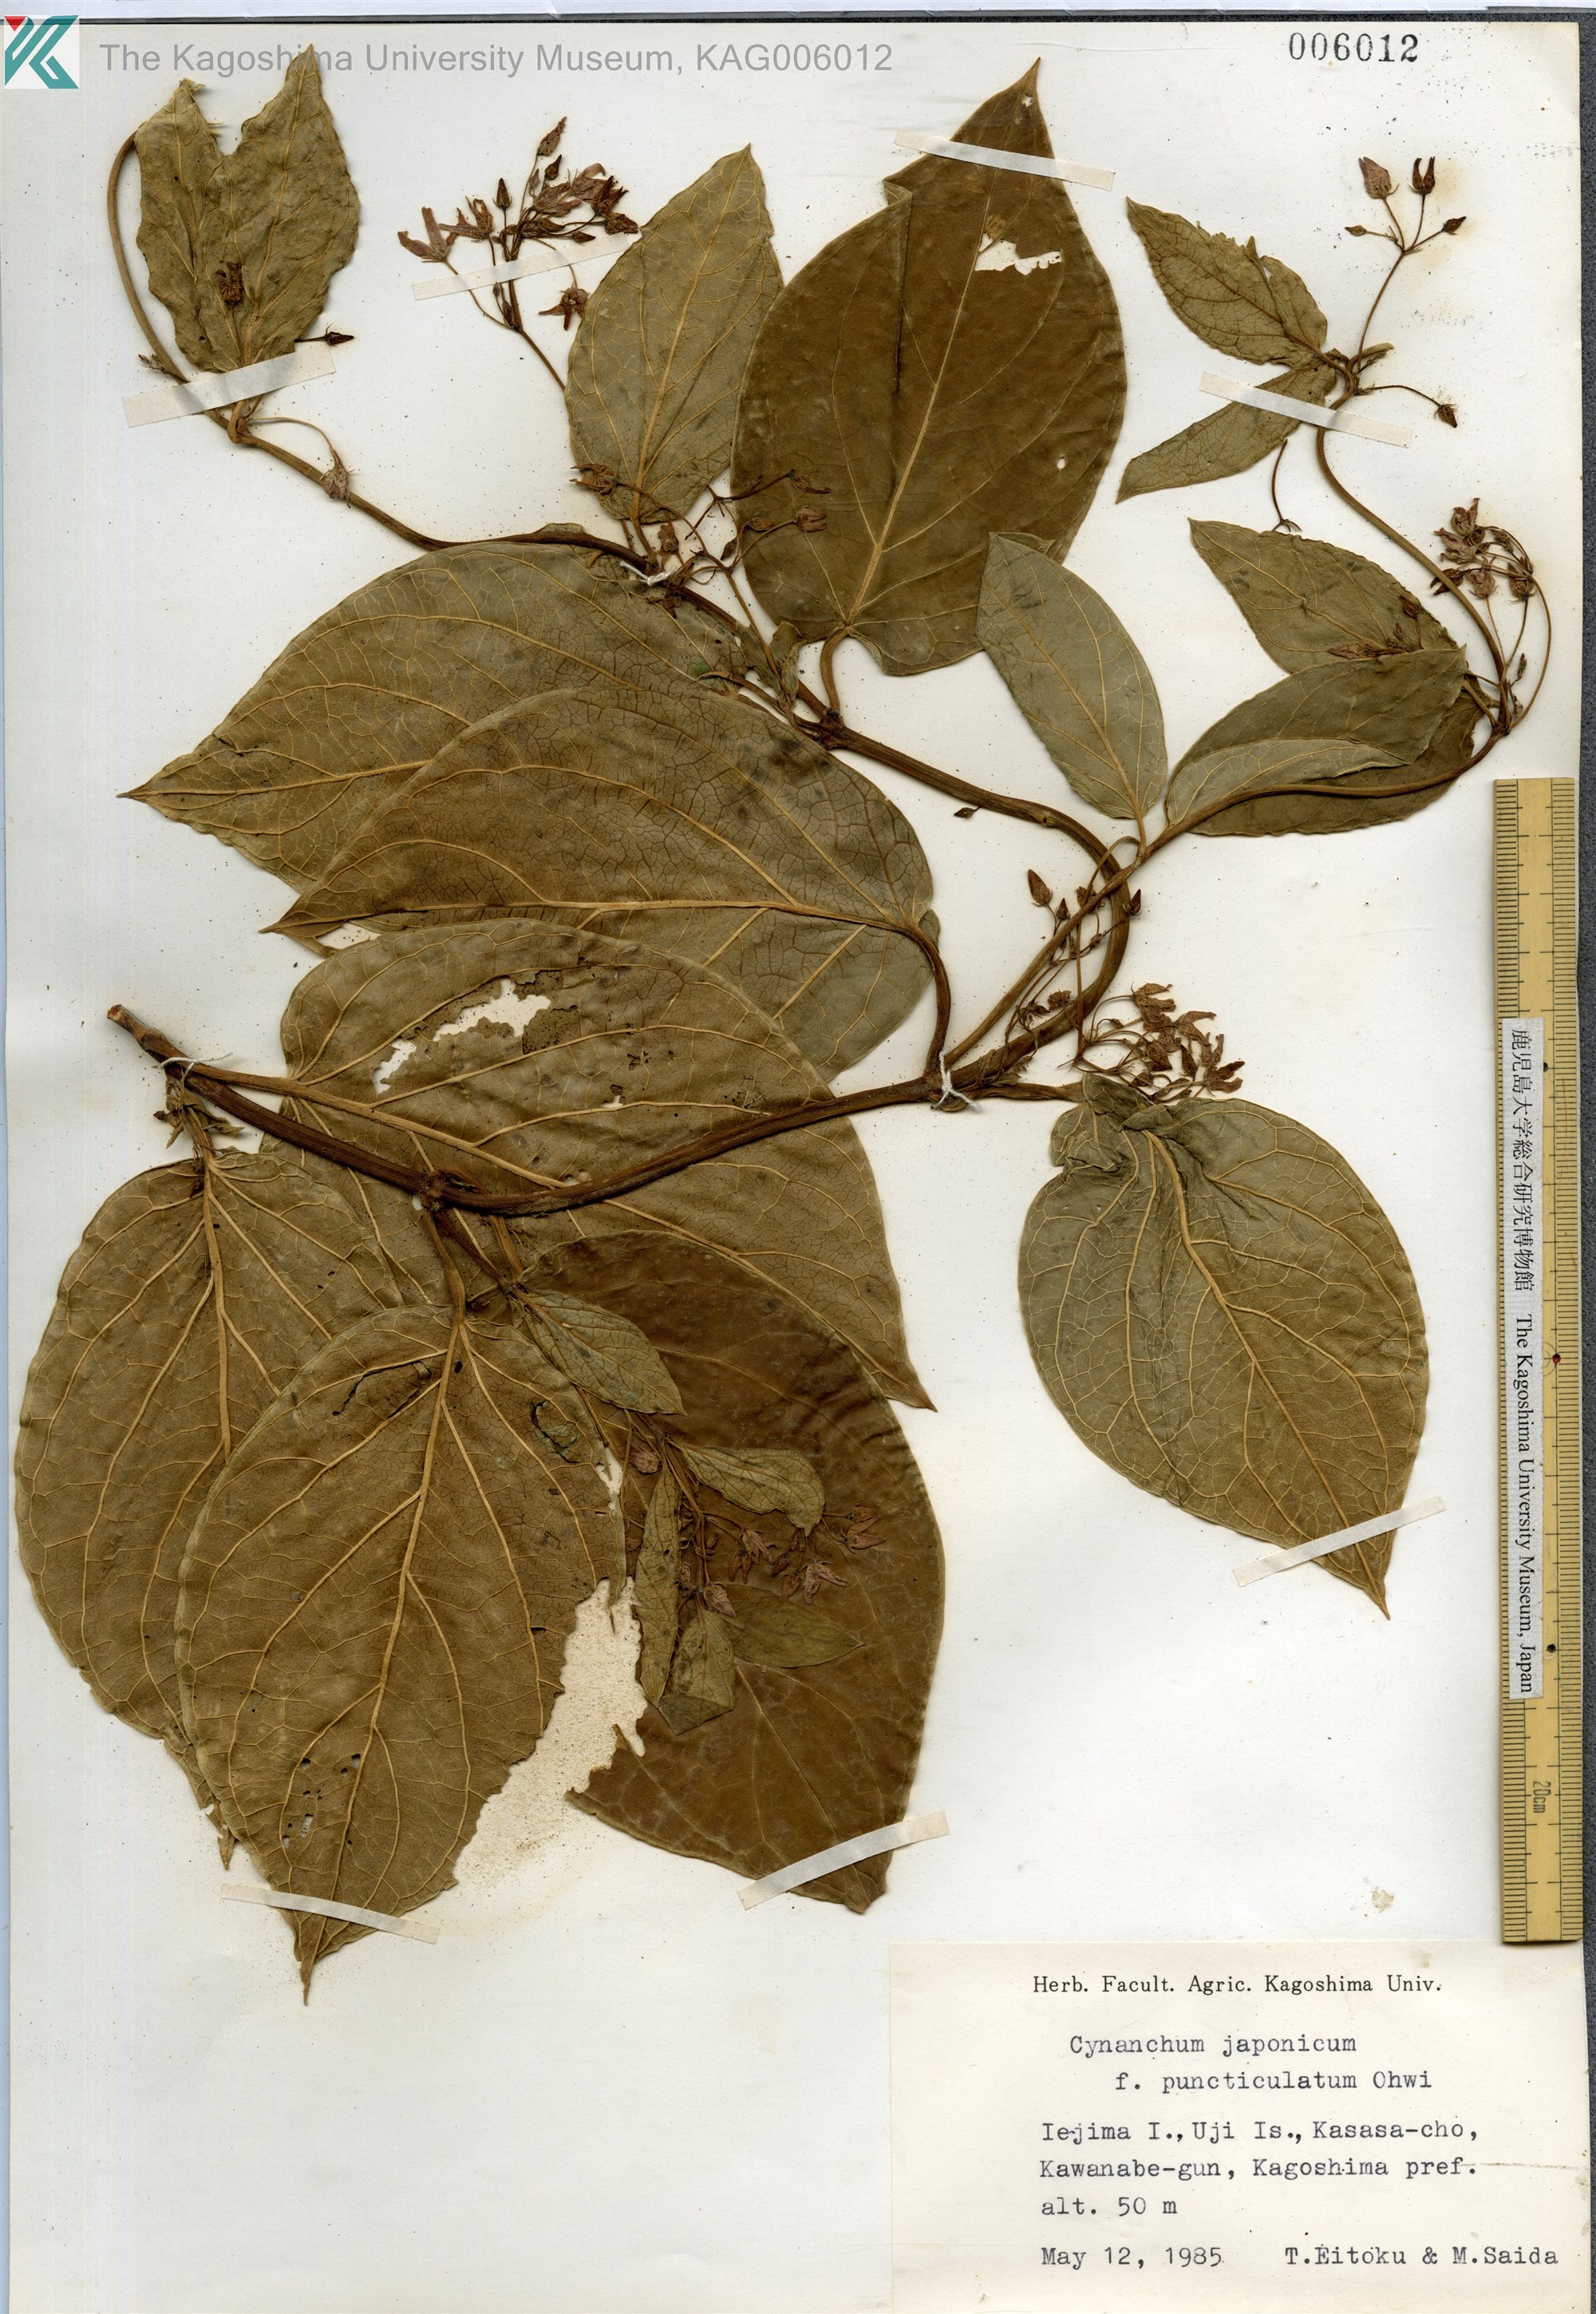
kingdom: Plantae
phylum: Tracheophyta
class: Magnoliopsida
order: Gentianales
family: Apocynaceae
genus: Vincetoxicum
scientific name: Vincetoxicum japonicum
